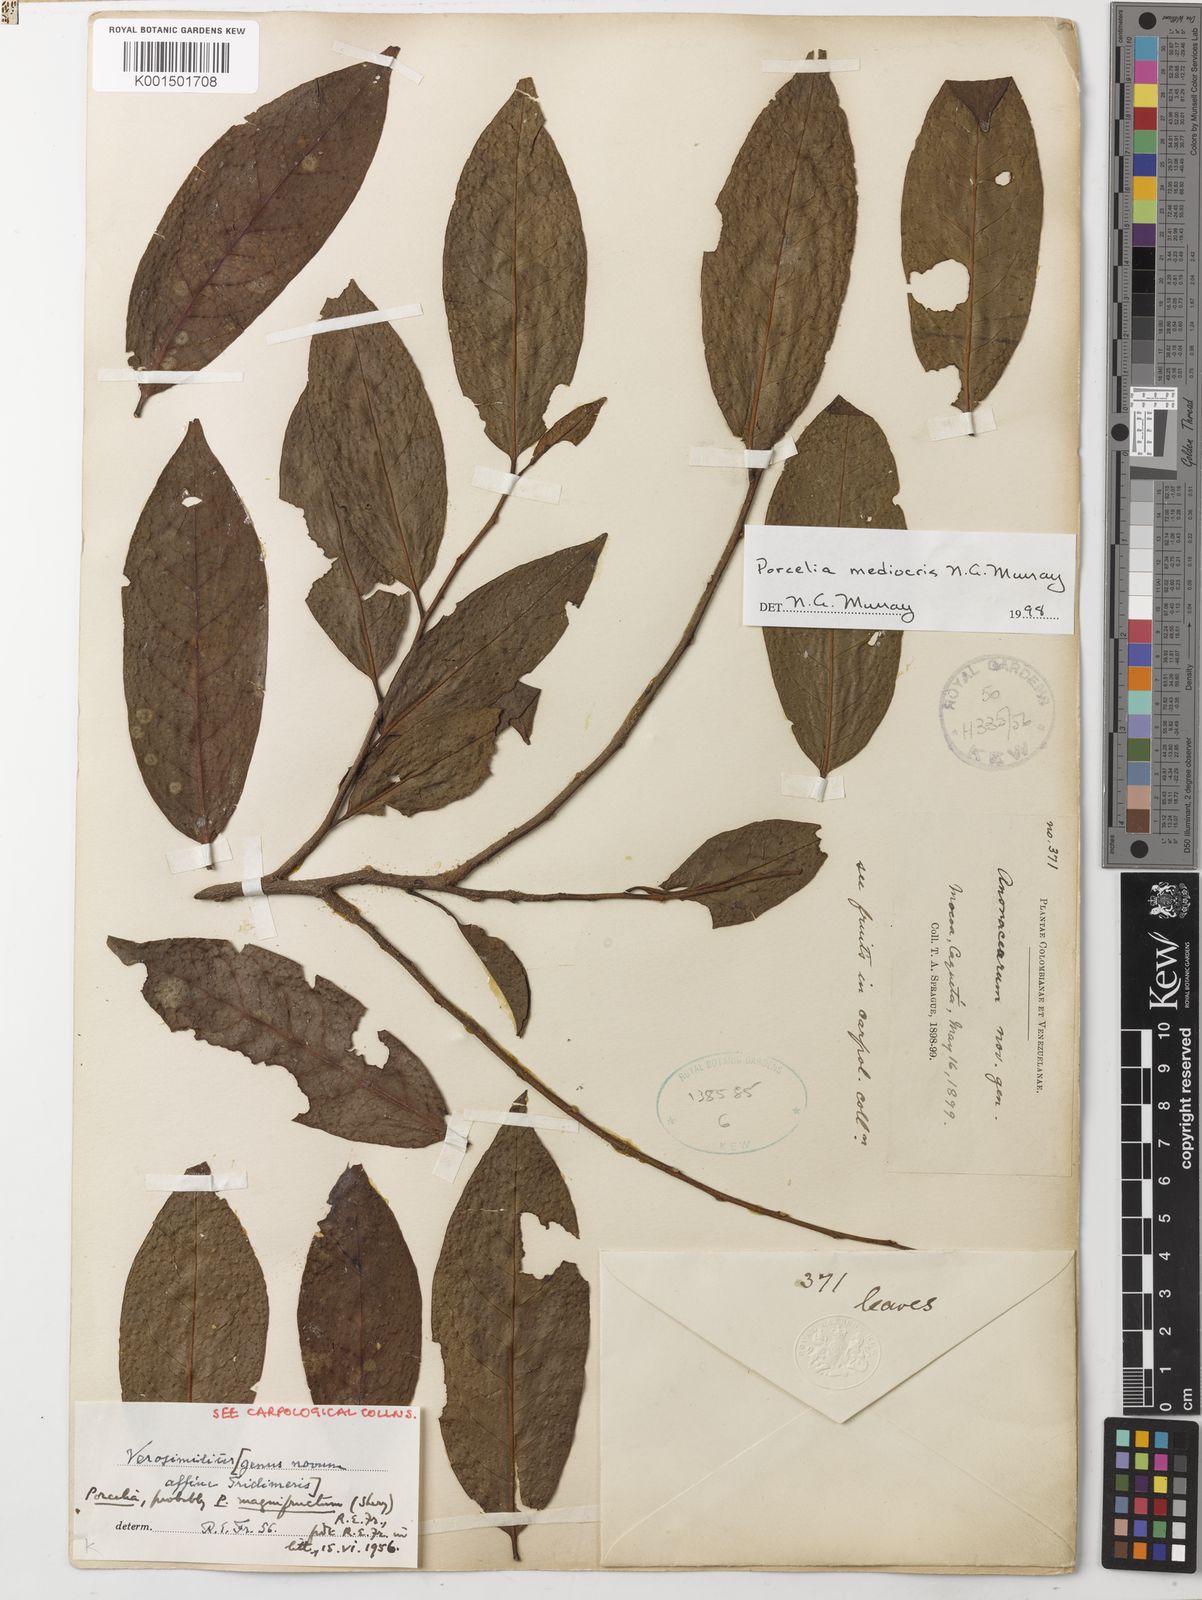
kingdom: Plantae
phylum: Tracheophyta
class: Magnoliopsida
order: Magnoliales
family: Annonaceae
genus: Porcelia
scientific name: Porcelia mediocris
